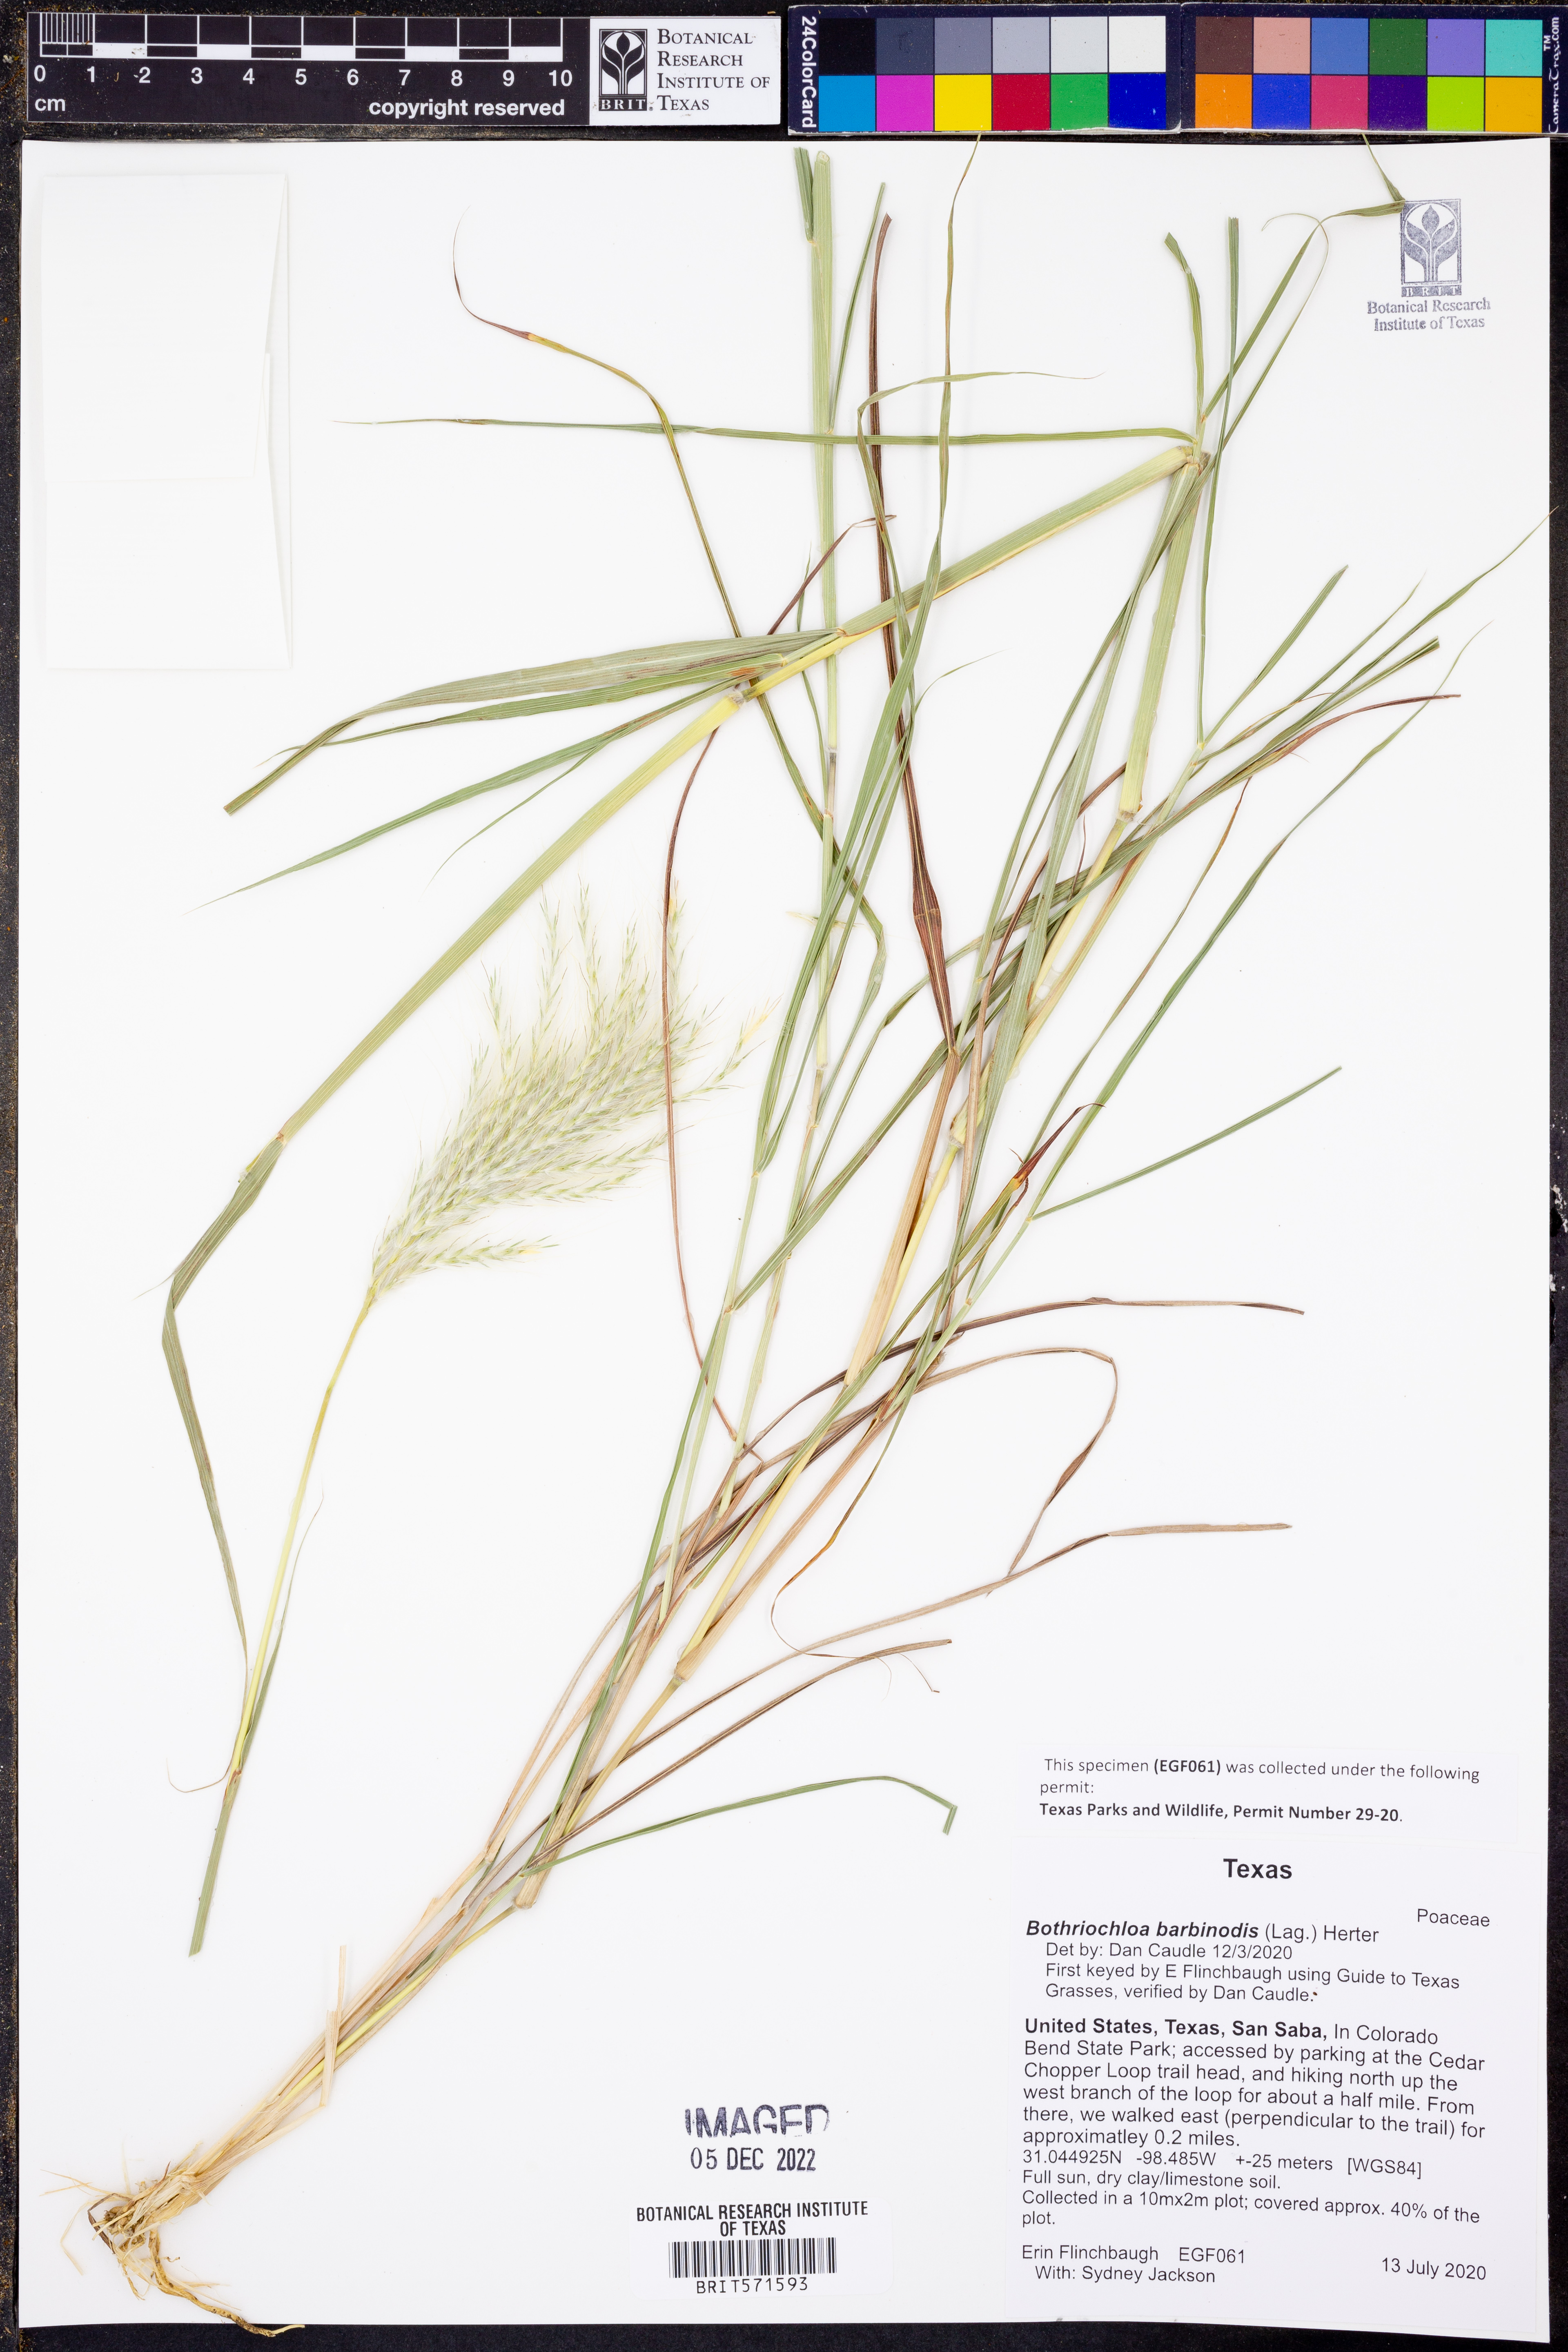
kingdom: Plantae
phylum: Tracheophyta
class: Liliopsida
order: Poales
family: Poaceae
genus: Bothriochloa
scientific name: Bothriochloa barbinodis
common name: Cane bluestem
